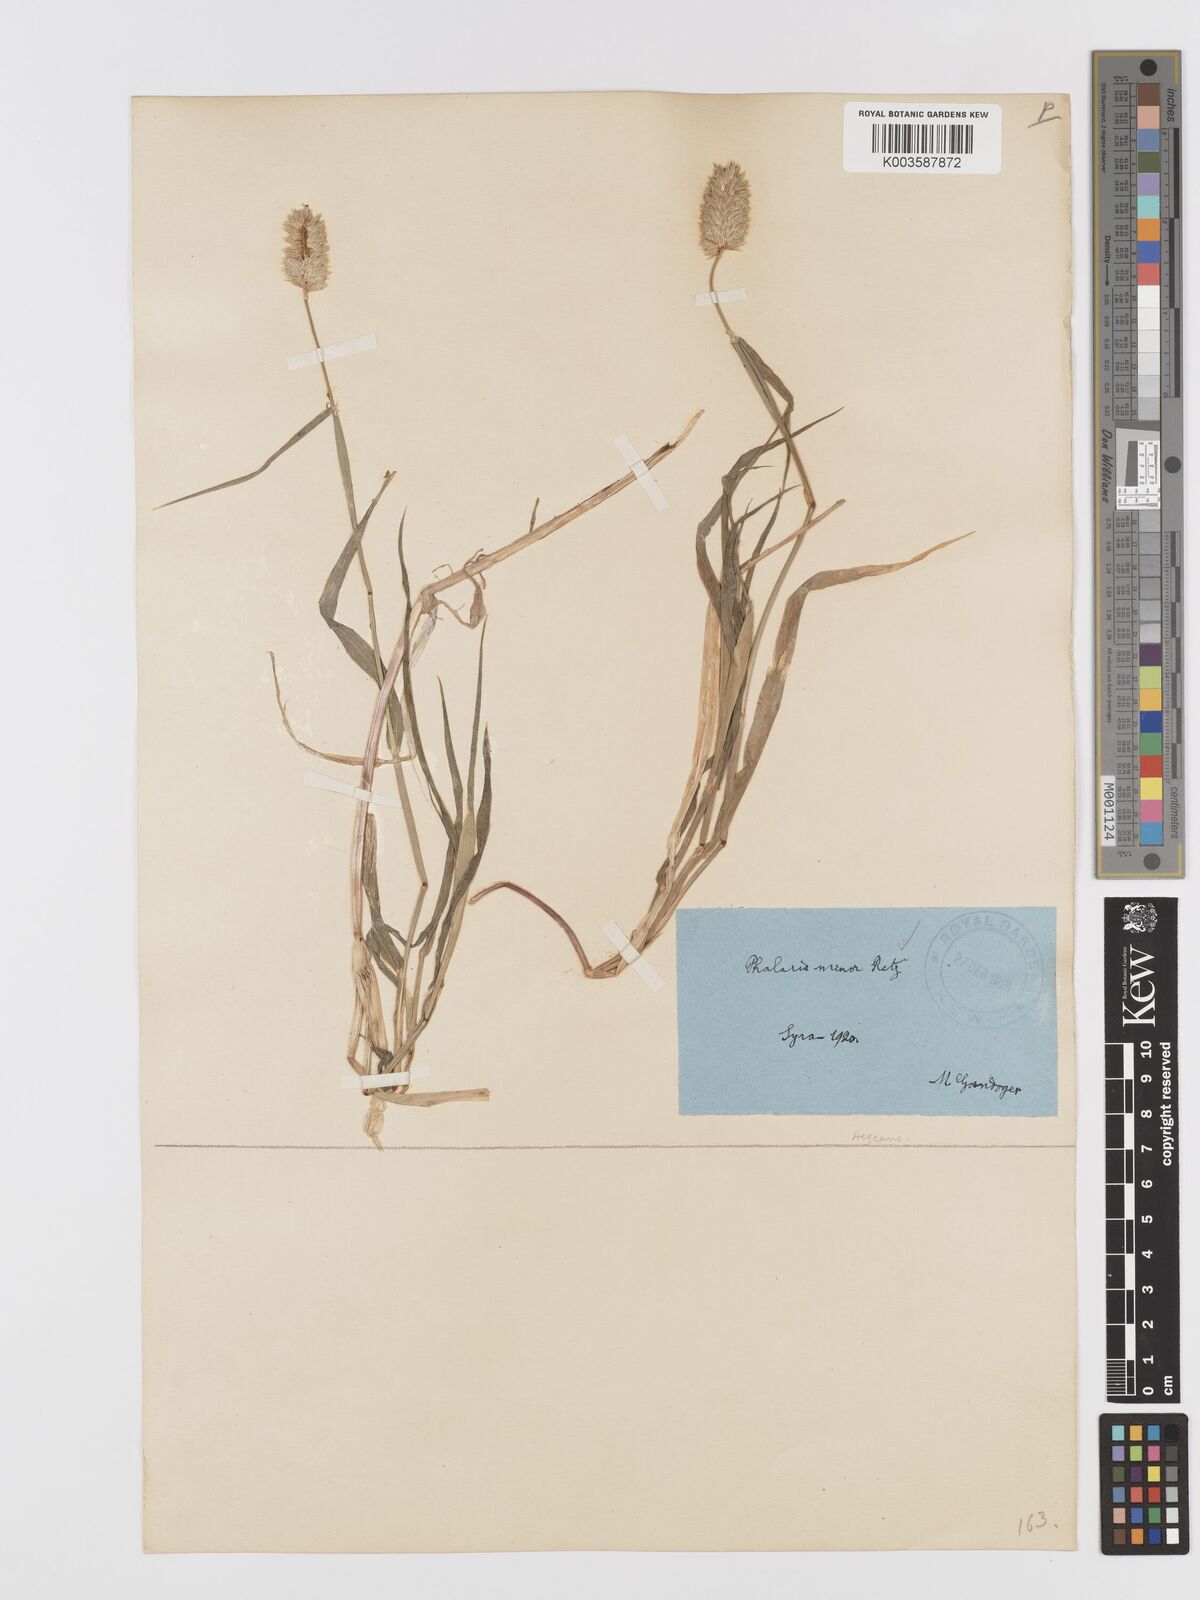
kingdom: Plantae
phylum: Tracheophyta
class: Liliopsida
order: Poales
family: Poaceae
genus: Phalaris
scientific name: Phalaris minor
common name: Littleseed canarygrass
